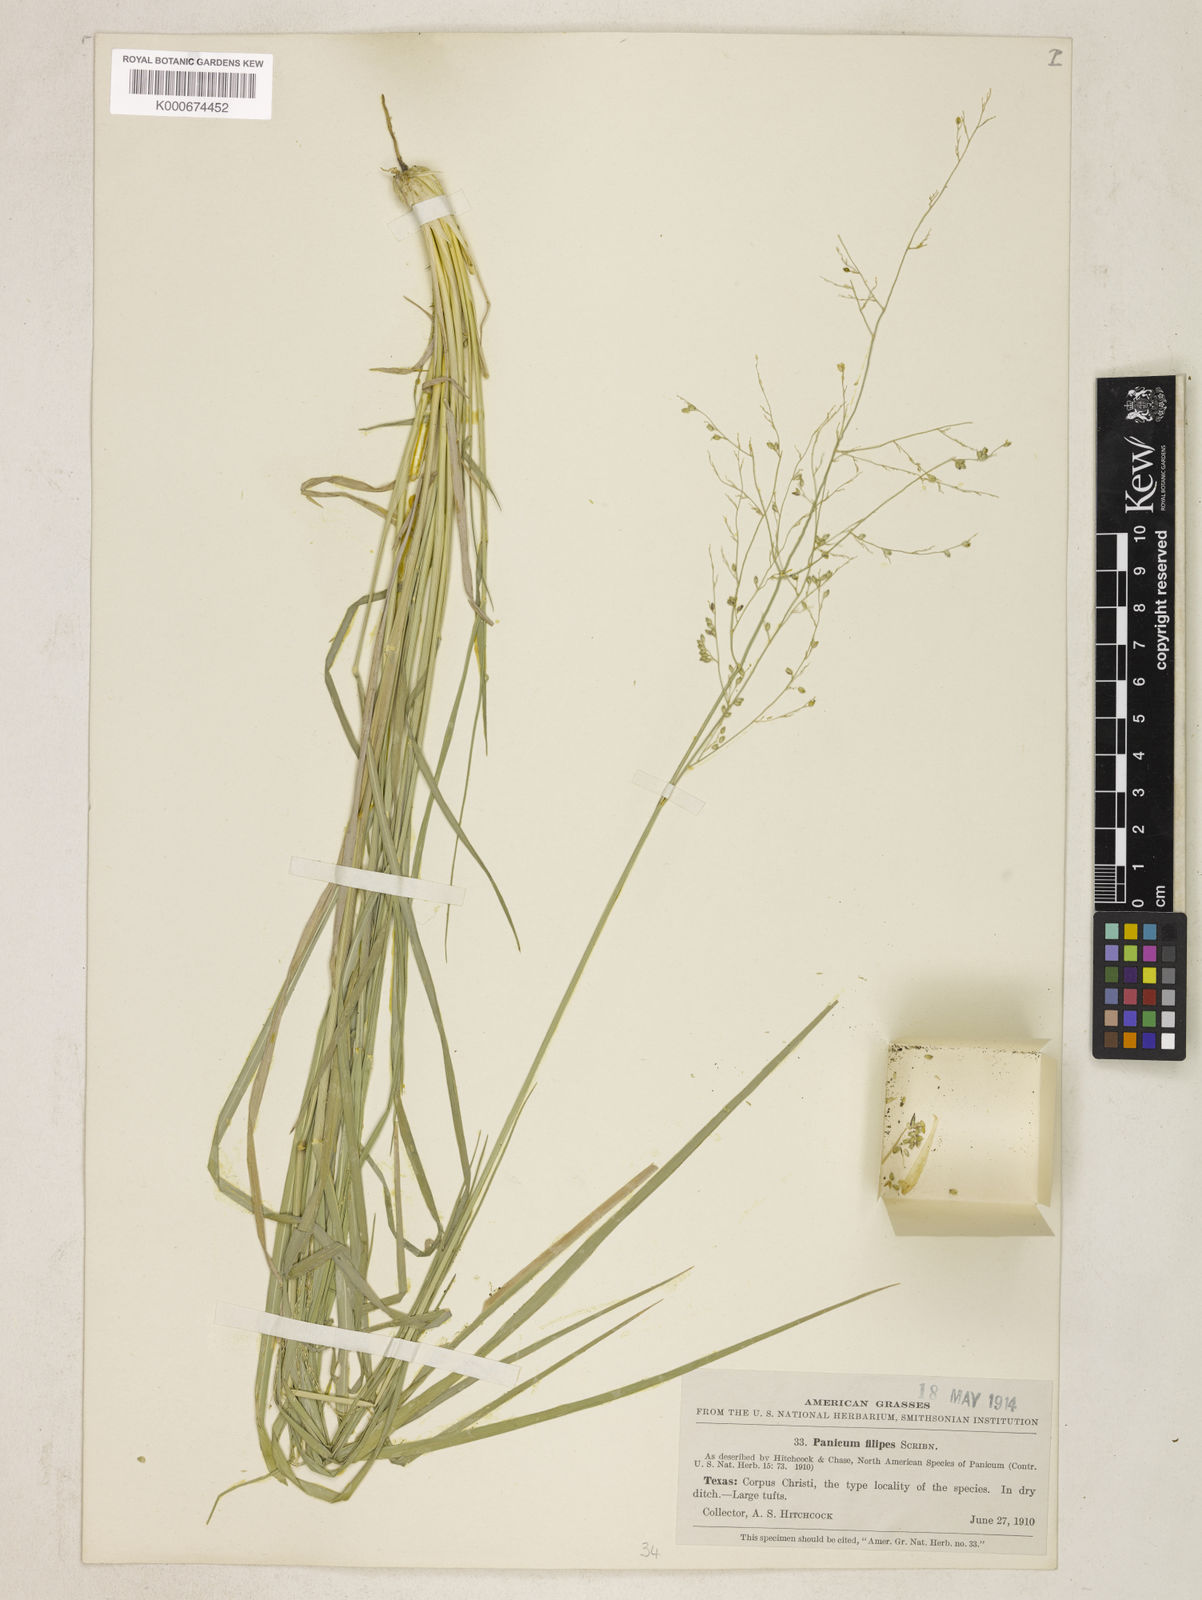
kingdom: Plantae
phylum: Tracheophyta
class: Liliopsida
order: Poales
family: Poaceae
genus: Panicum
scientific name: Panicum hallii
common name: Hall's witchgrass
